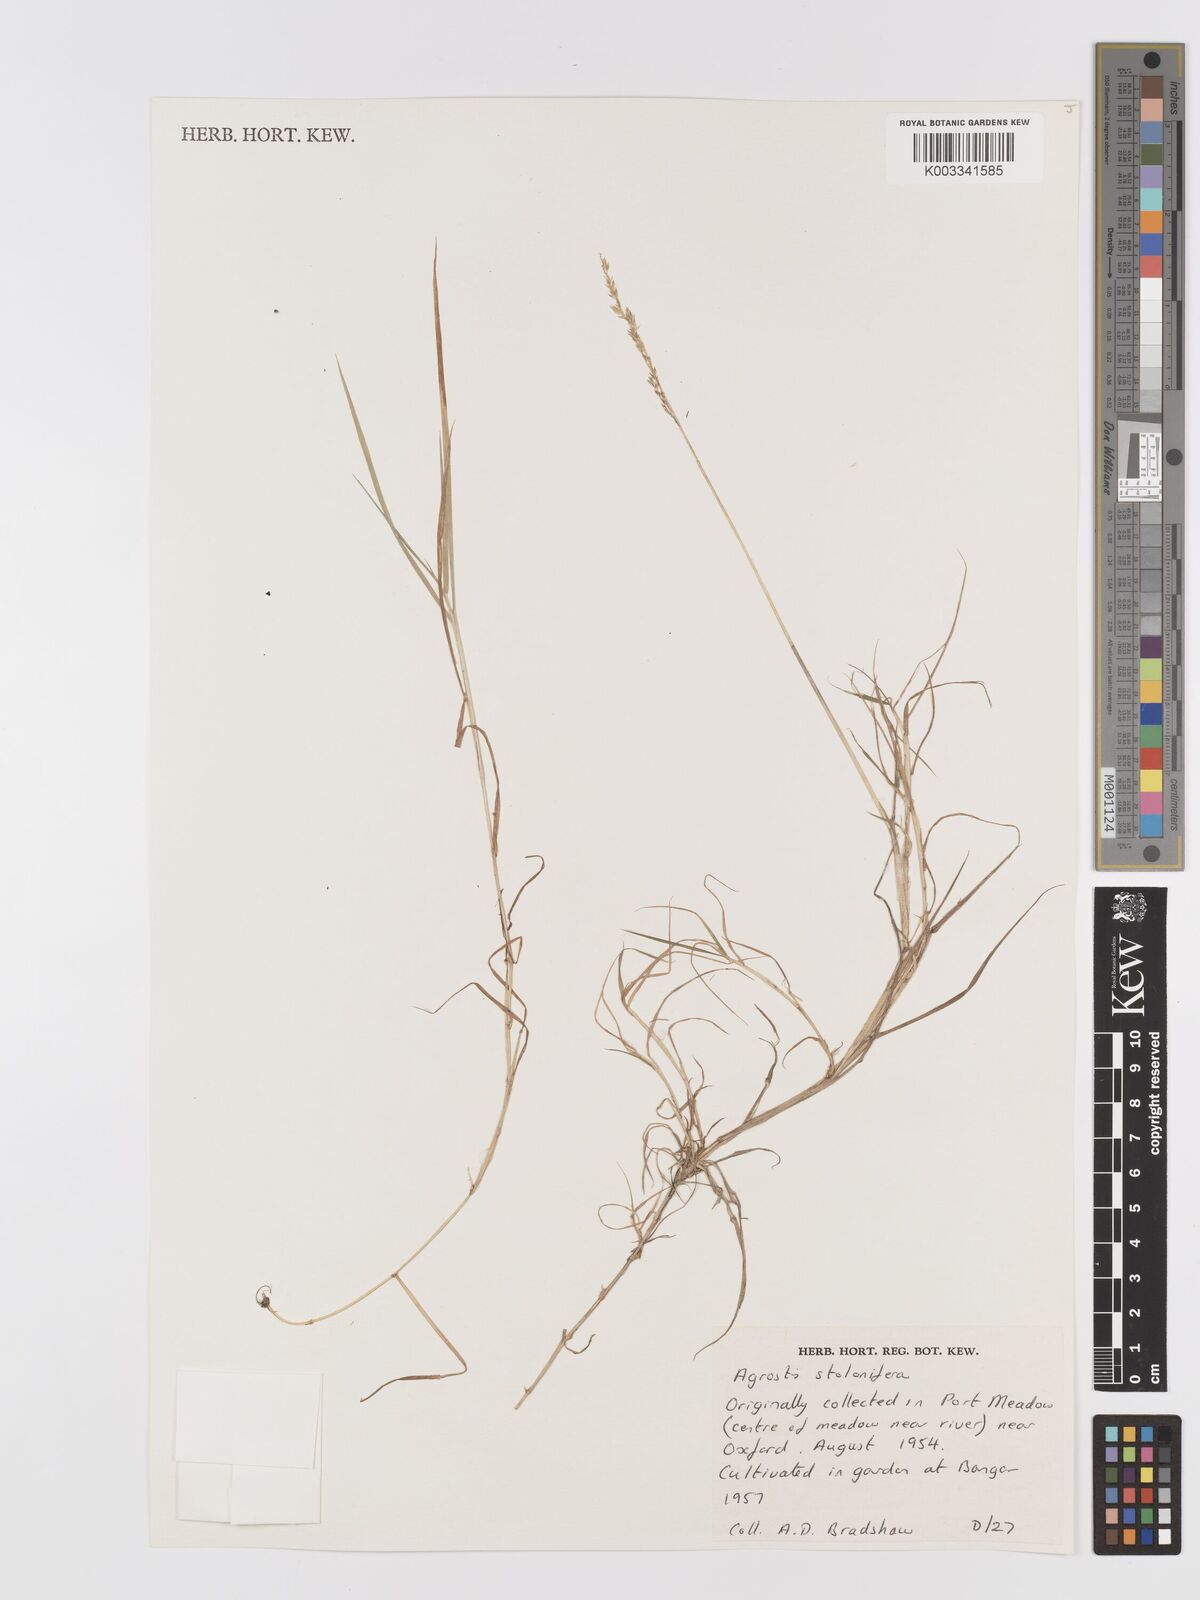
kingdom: Plantae
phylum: Tracheophyta
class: Liliopsida
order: Poales
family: Poaceae
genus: Agrostis
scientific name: Agrostis stolonifera
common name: Creeping bentgrass
